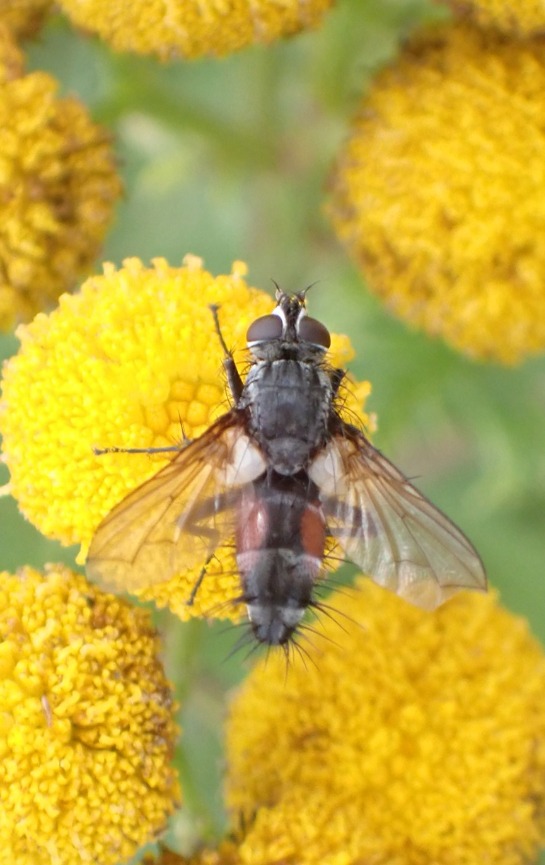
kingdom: Animalia
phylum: Arthropoda
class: Insecta
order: Diptera
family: Tachinidae
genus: Eriothrix
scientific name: Eriothrix rufomaculatus
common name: Rød snylteflue
